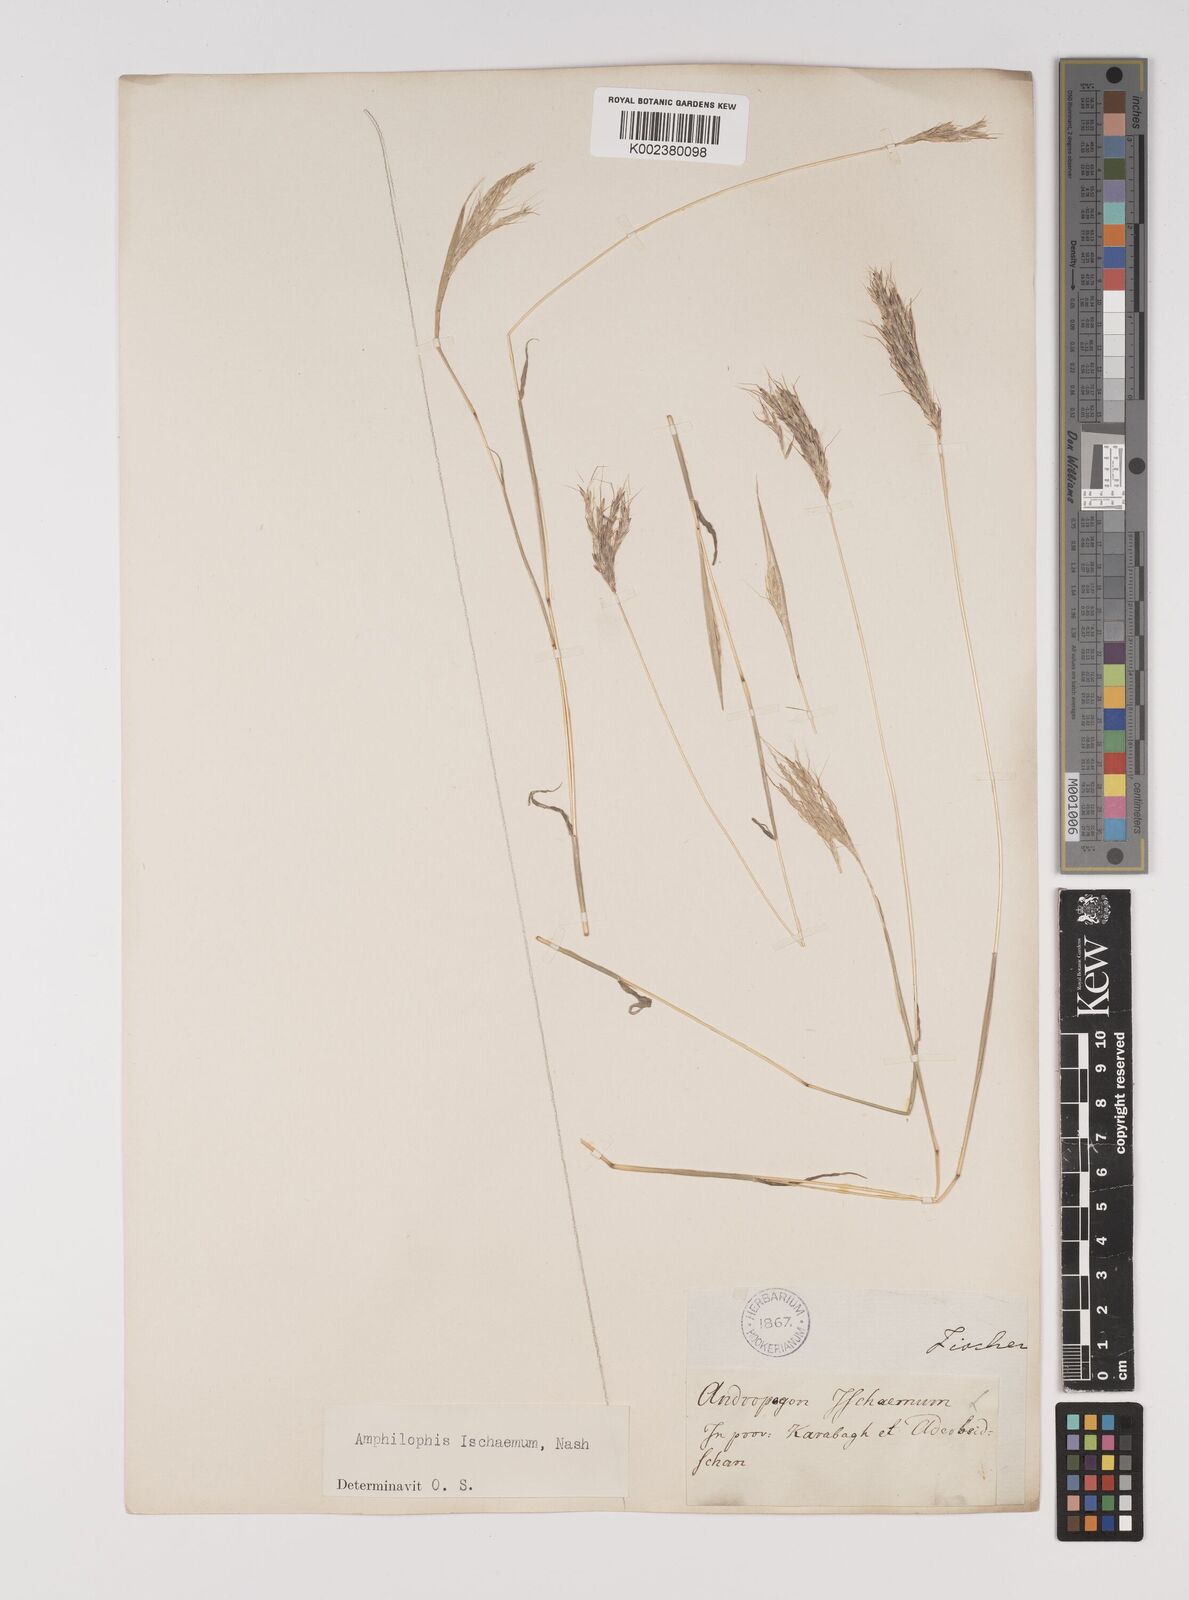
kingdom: Plantae
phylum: Tracheophyta
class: Liliopsida
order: Poales
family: Poaceae
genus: Bothriochloa
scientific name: Bothriochloa ischaemum
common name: Yellow bluestem
